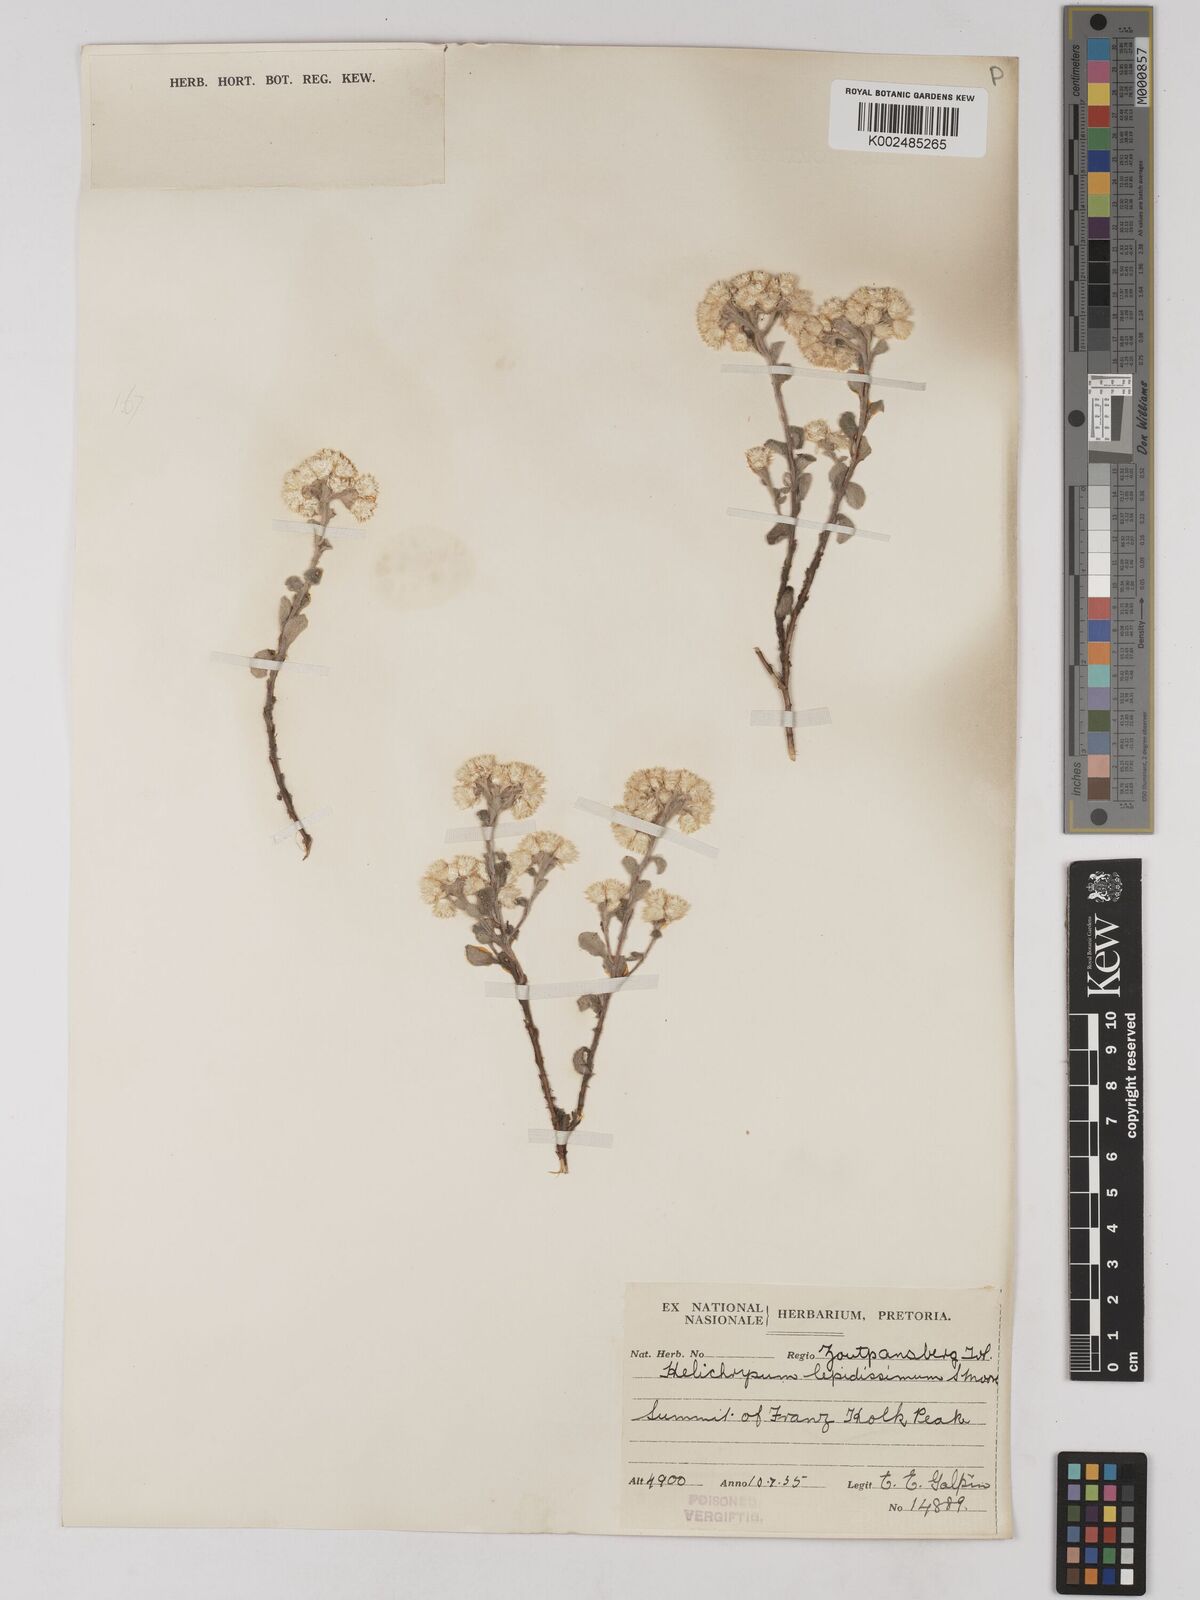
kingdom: Plantae
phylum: Tracheophyta
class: Magnoliopsida
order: Asterales
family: Asteraceae
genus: Helichrysum
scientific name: Helichrysum lepidissimum
